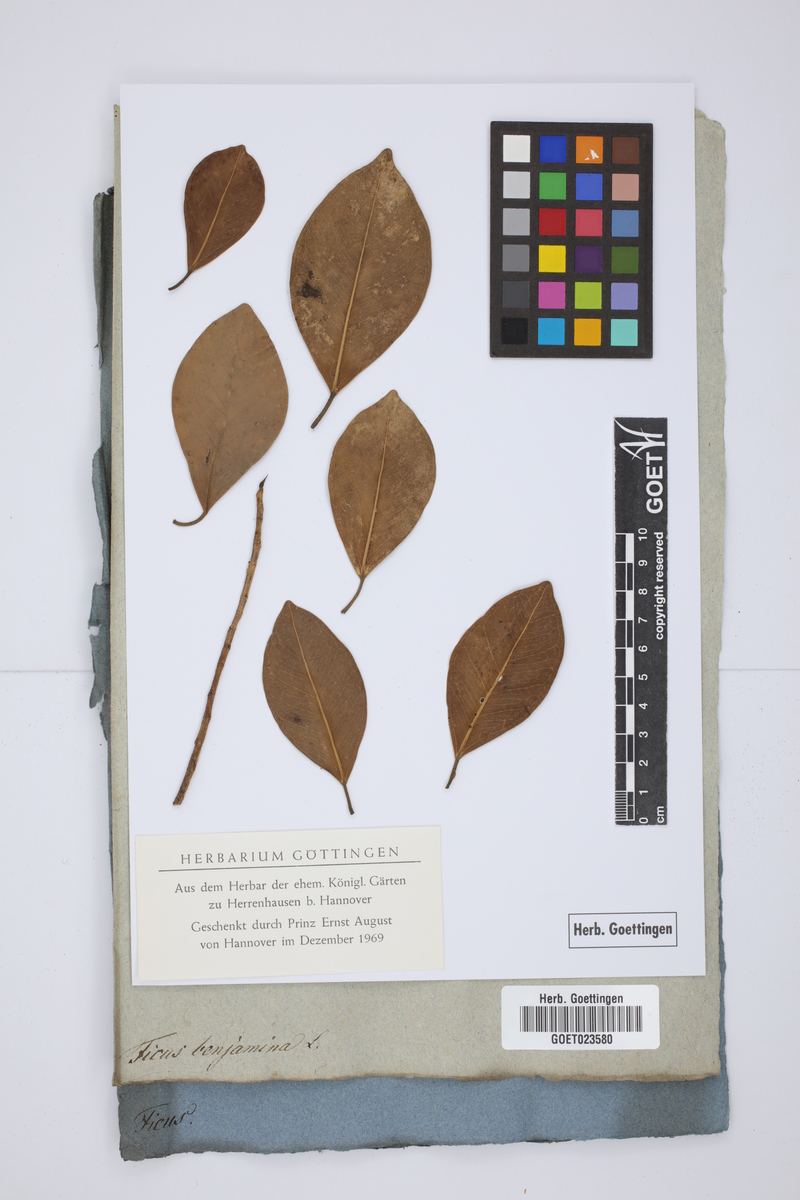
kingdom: Plantae
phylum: Tracheophyta
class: Magnoliopsida
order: Rosales
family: Moraceae
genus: Ficus
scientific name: Ficus benjamina
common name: Weeping fig
